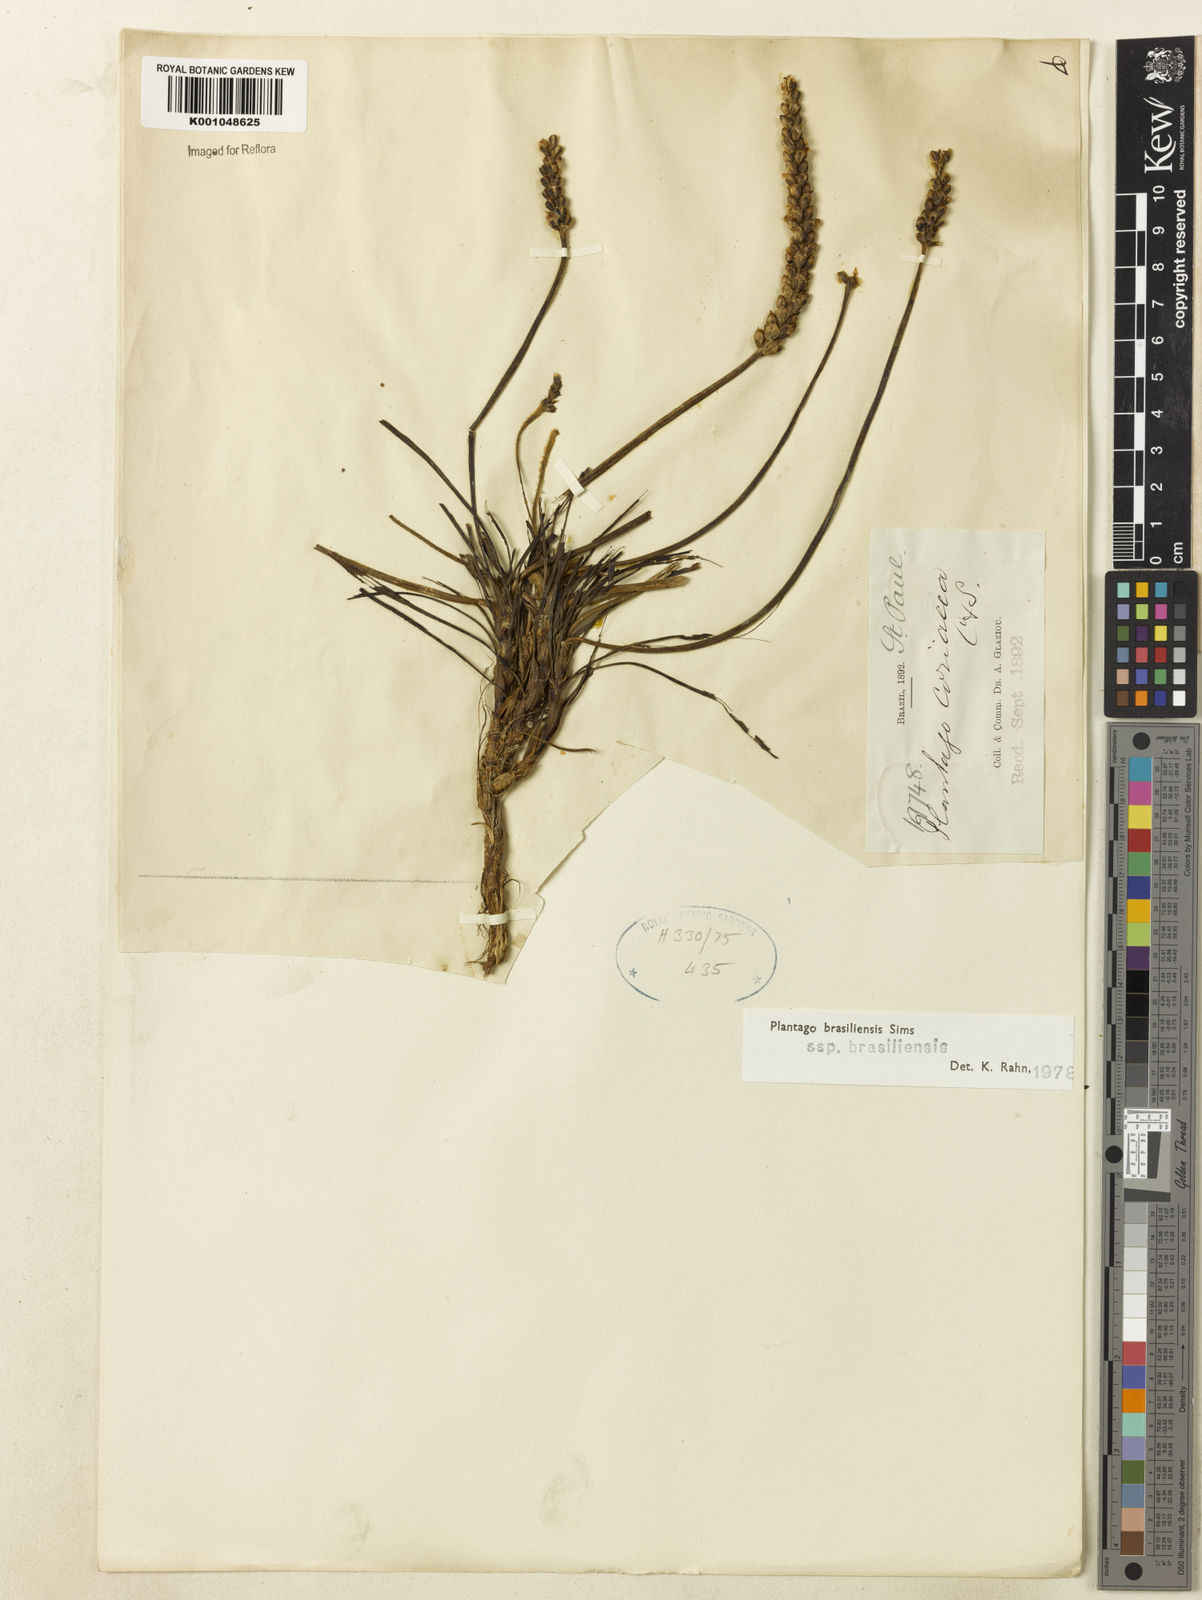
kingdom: Plantae
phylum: Tracheophyta
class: Magnoliopsida
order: Lamiales
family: Plantaginaceae
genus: Plantago
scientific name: Plantago brasiliensis
